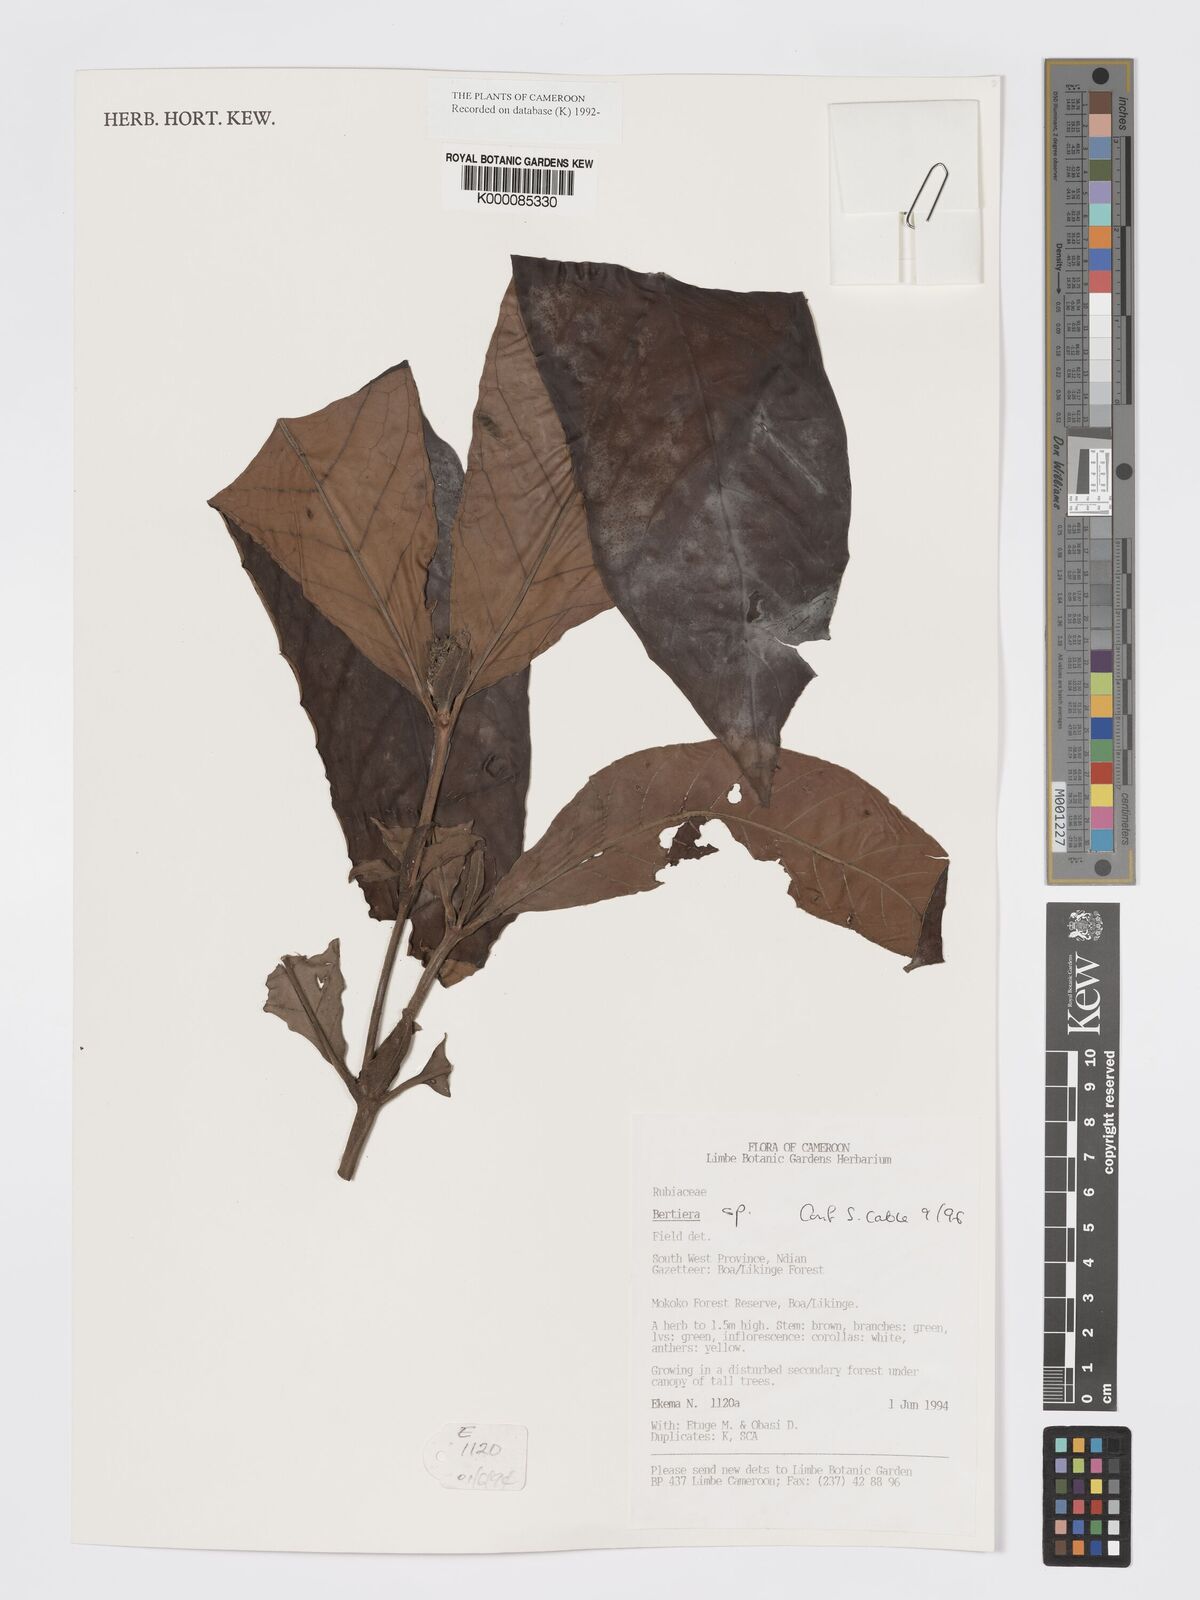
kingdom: Plantae
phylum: Tracheophyta
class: Magnoliopsida
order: Gentianales
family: Rubiaceae
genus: Bertiera
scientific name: Bertiera
